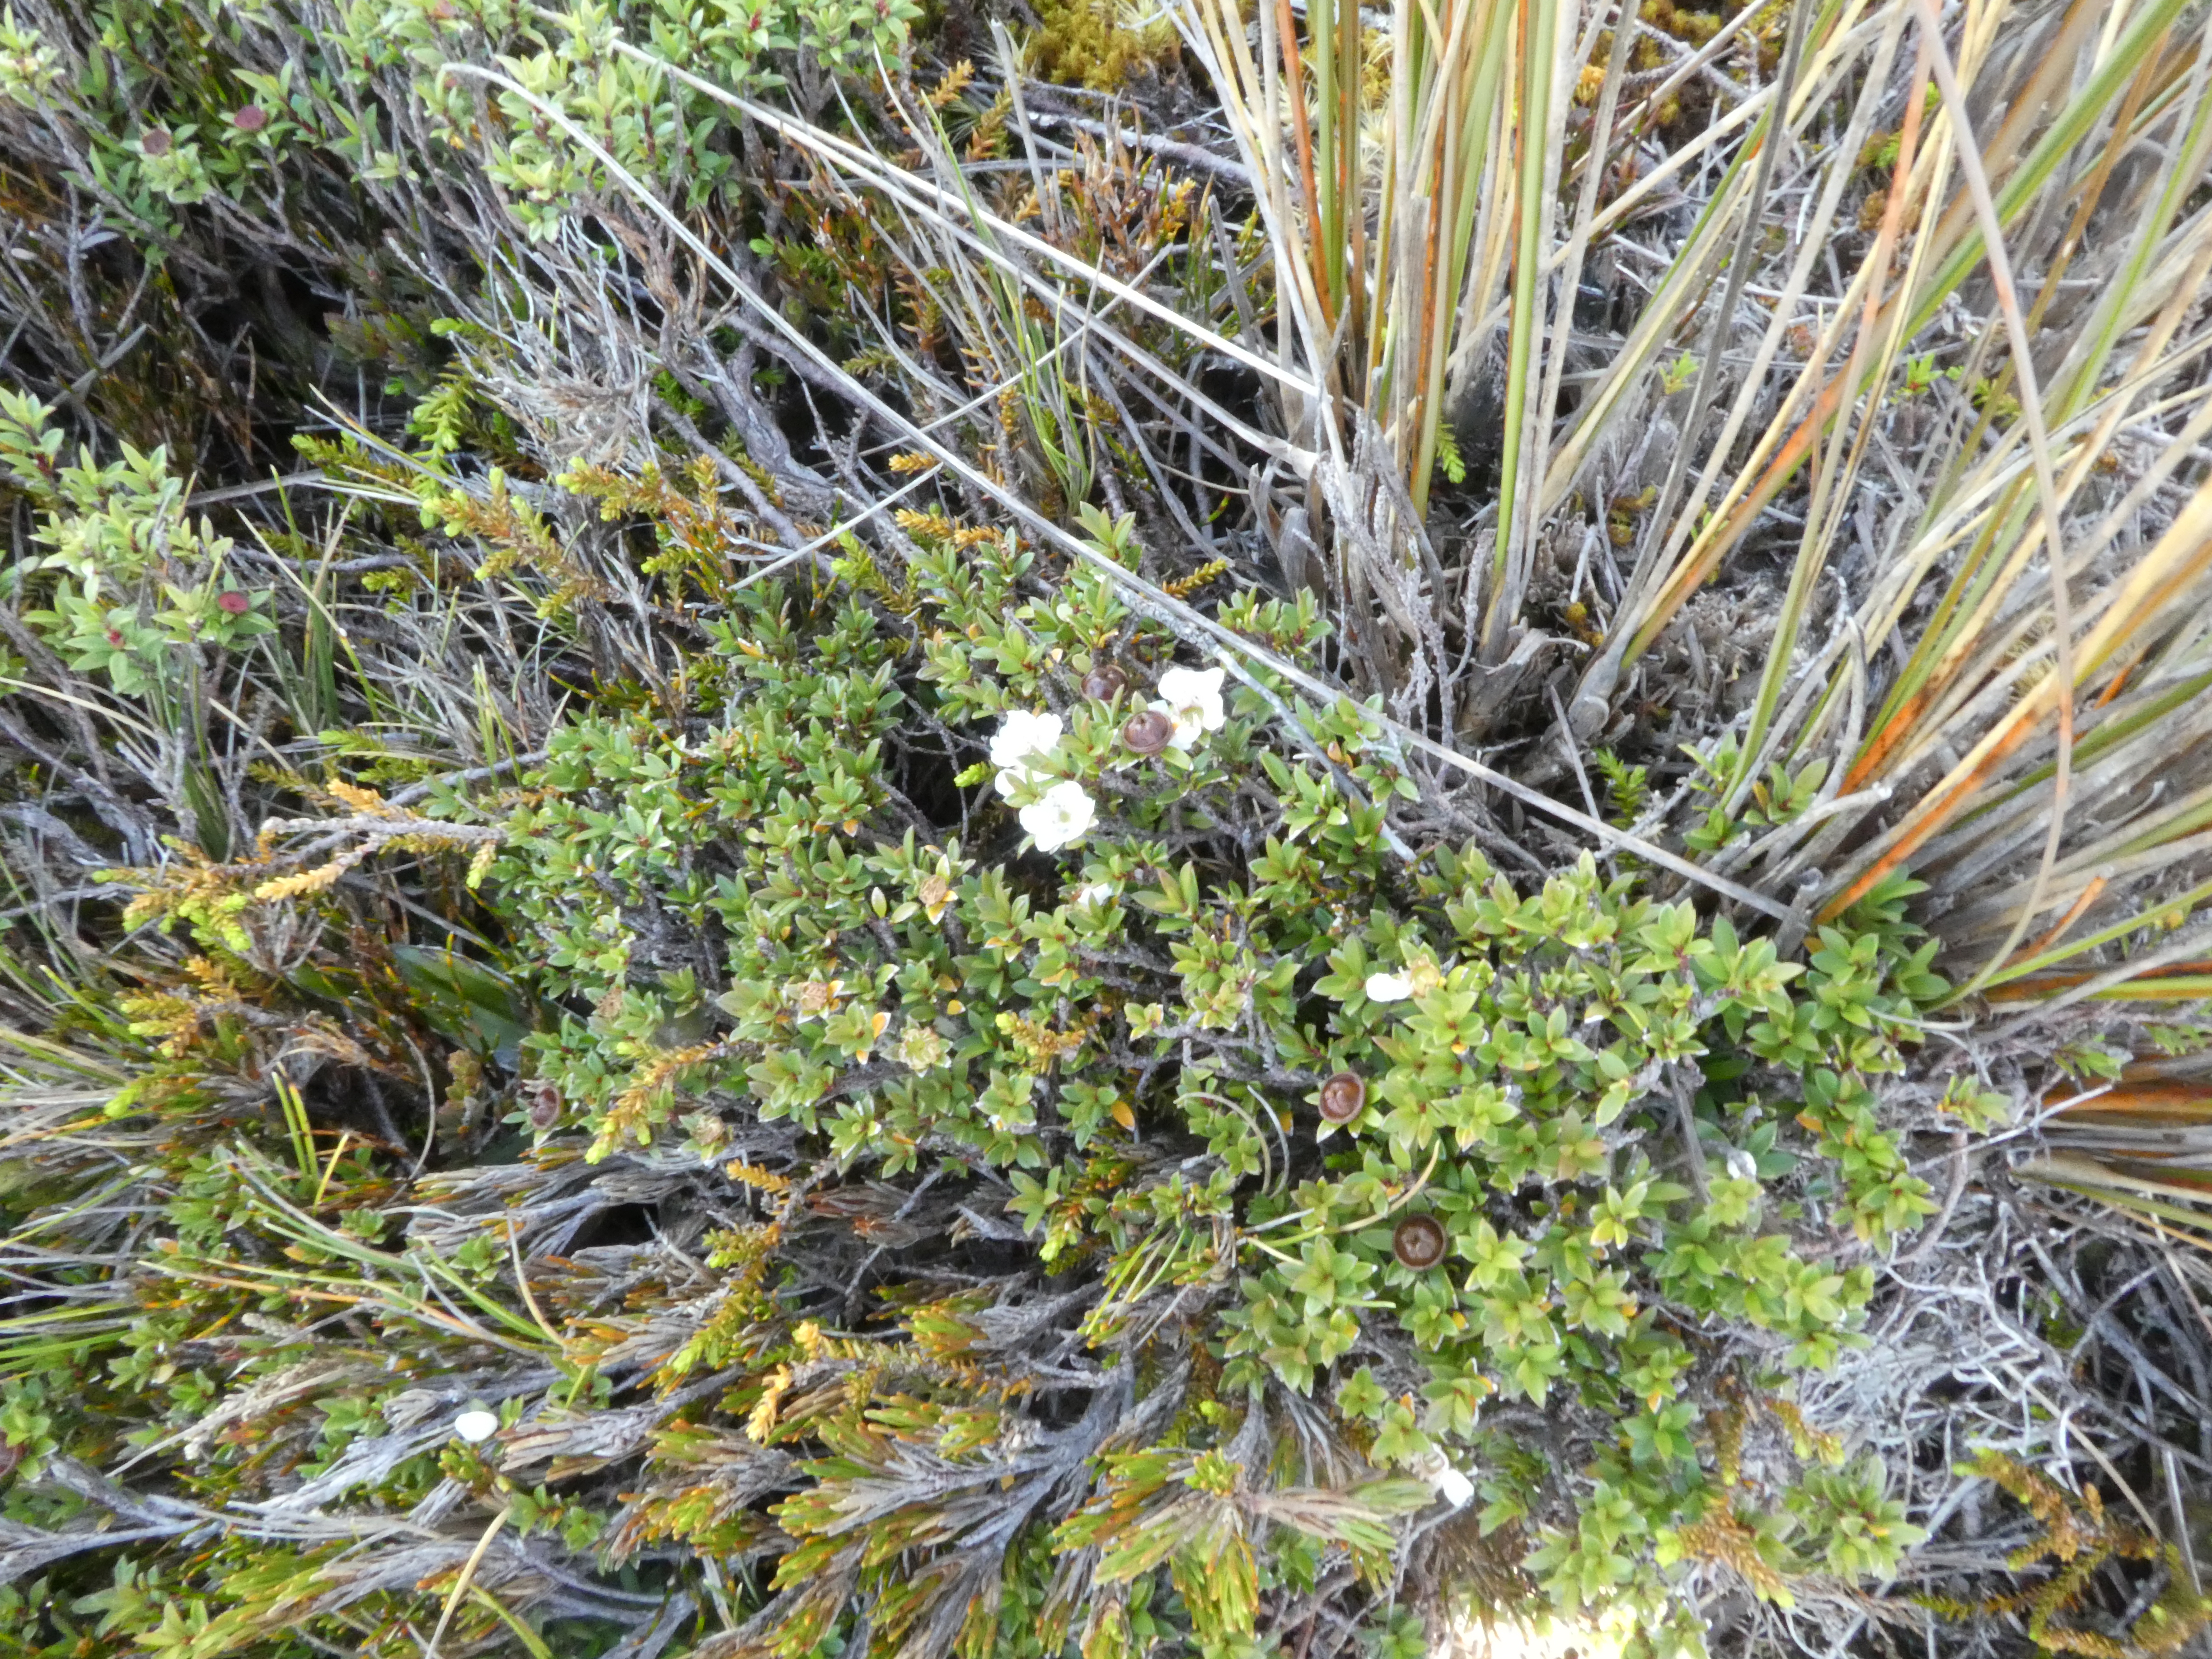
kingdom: Plantae
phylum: Tracheophyta
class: Magnoliopsida
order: Myrtales
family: Myrtaceae
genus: Leptospermum
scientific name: Leptospermum scoparium
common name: Broom tea-tree
